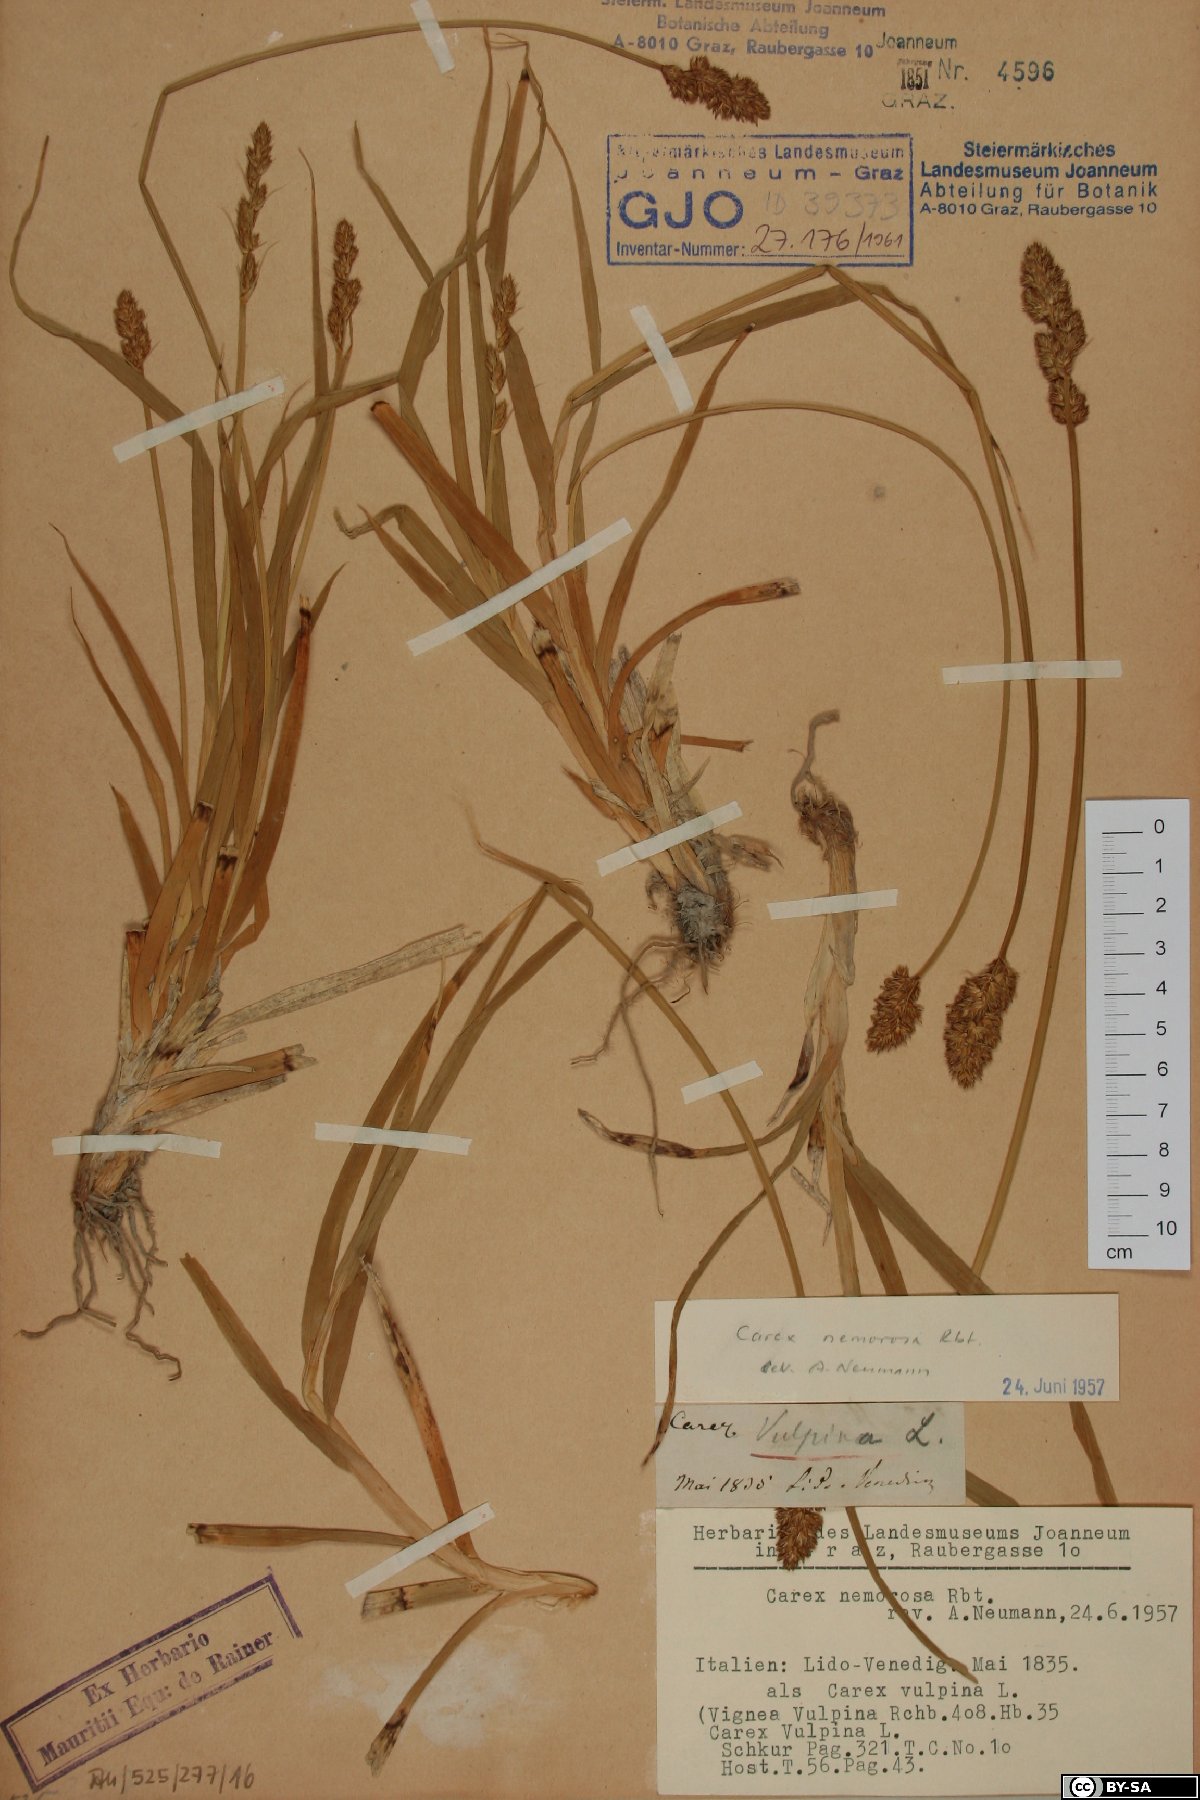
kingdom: Plantae
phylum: Tracheophyta
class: Liliopsida
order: Poales
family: Cyperaceae
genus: Carex
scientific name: Carex otrubae
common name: False fox-sedge
